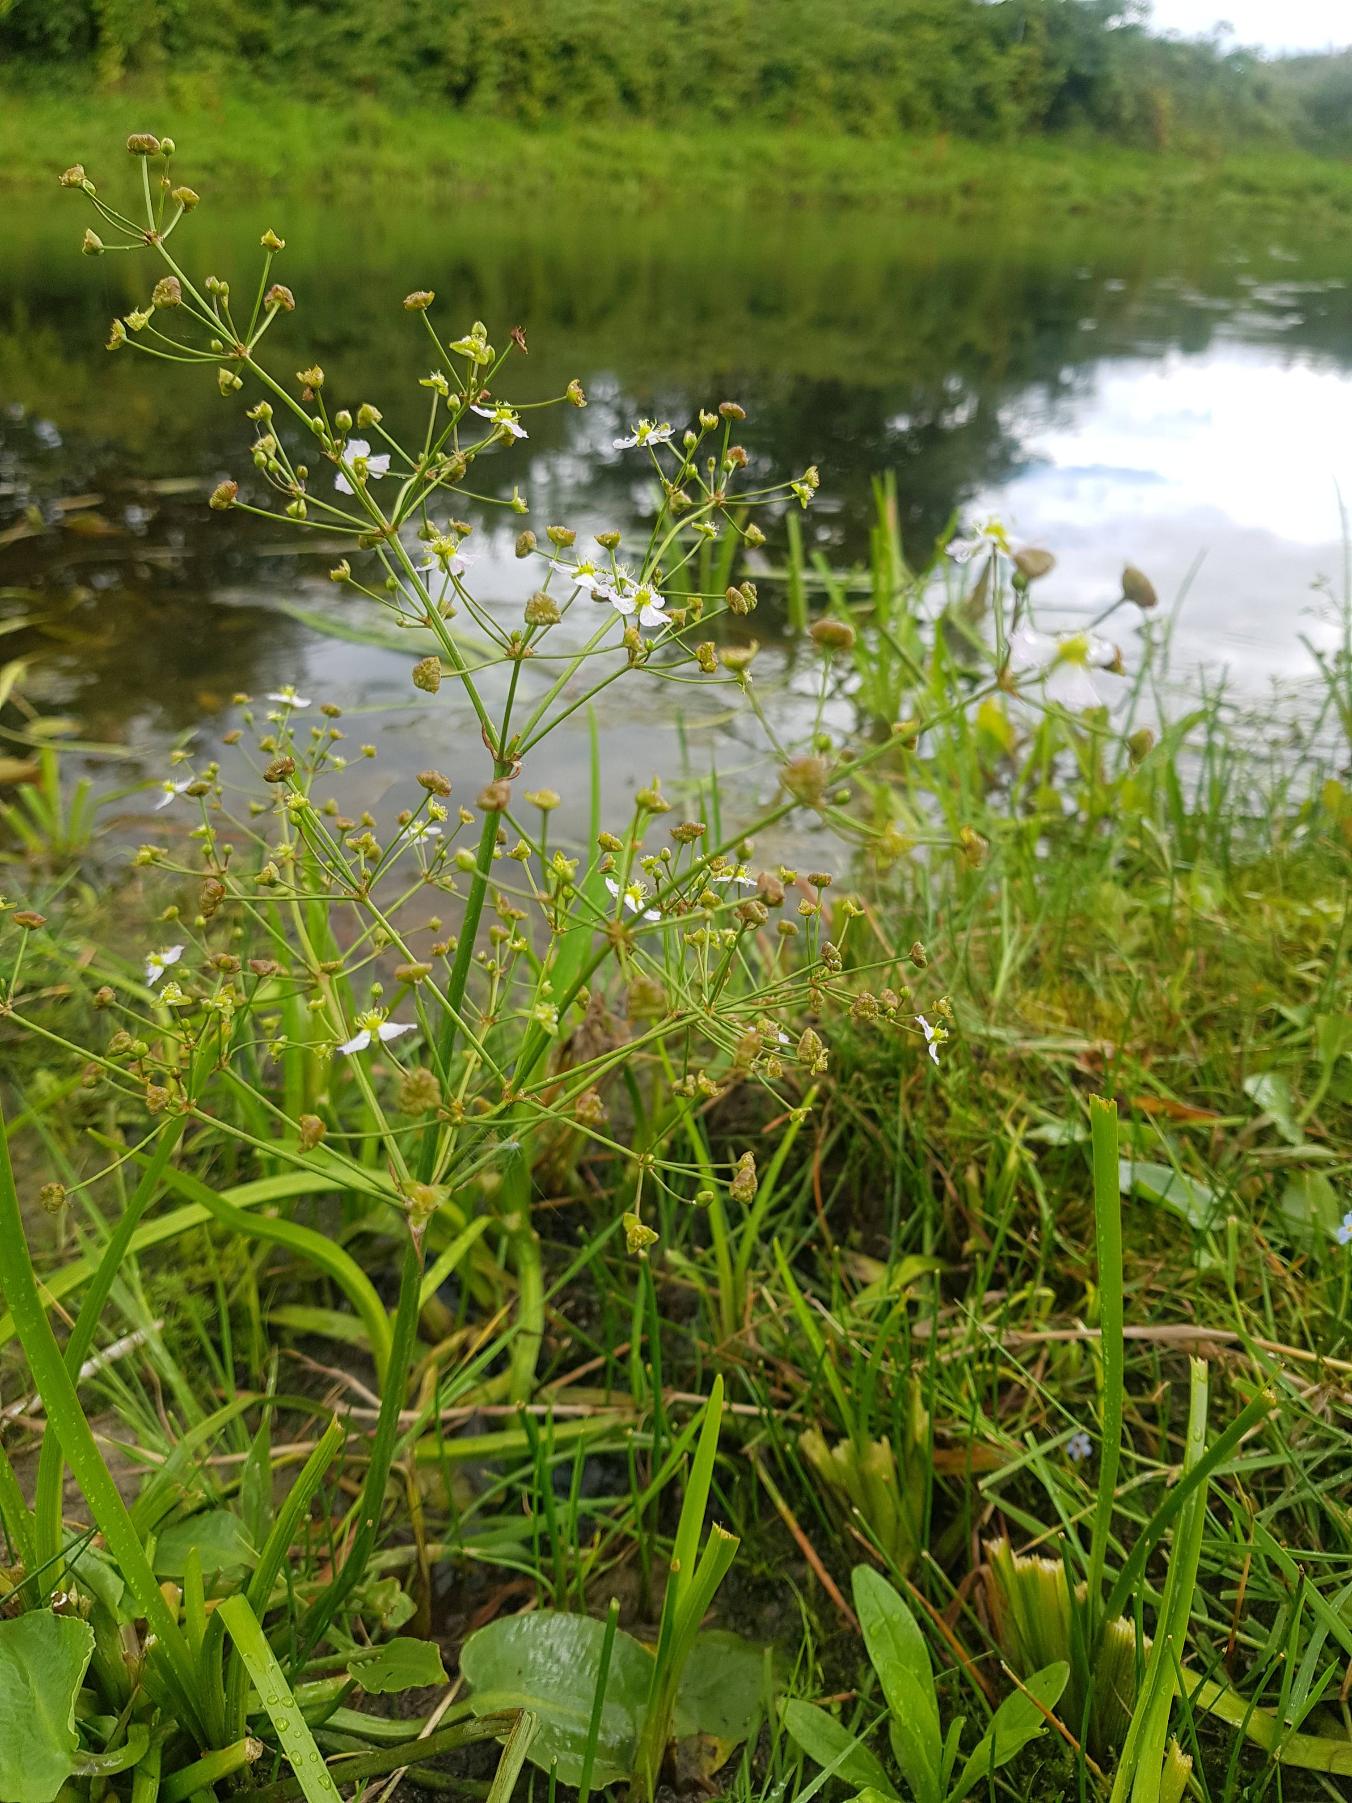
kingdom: Plantae
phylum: Tracheophyta
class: Liliopsida
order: Alismatales
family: Alismataceae
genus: Alisma
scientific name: Alisma plantago-aquatica
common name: Vejbred-skeblad
